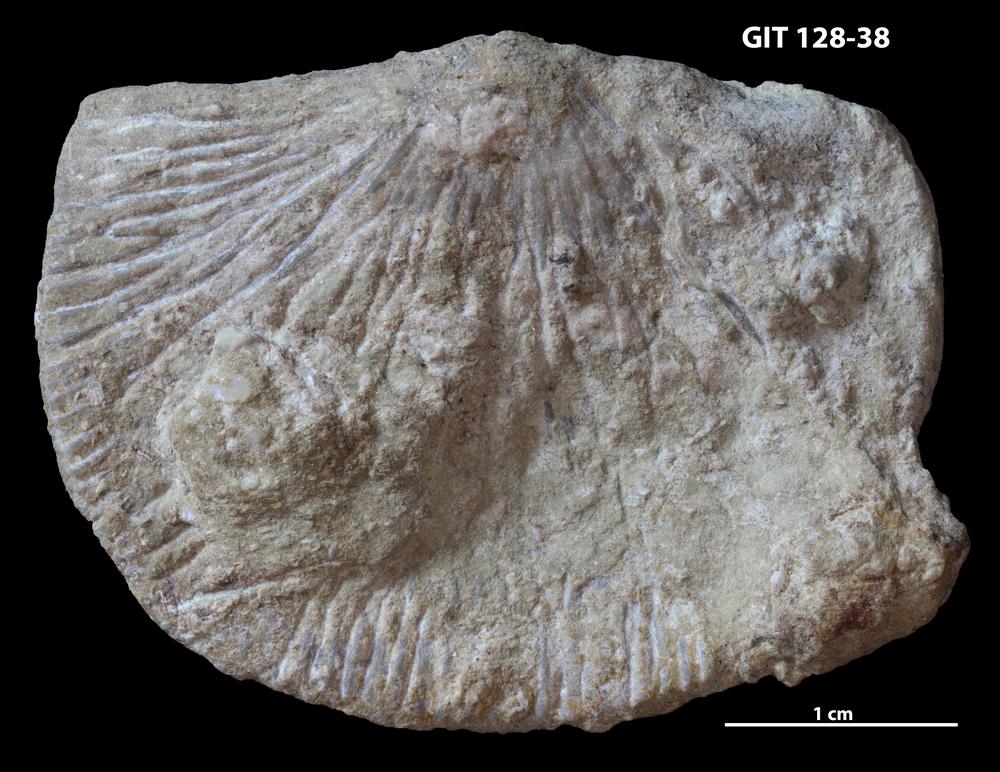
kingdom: Animalia
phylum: Brachiopoda
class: Rhynchonellata
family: Dolerorthidae
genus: Dolerorthis
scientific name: Dolerorthis Orthis rustica
